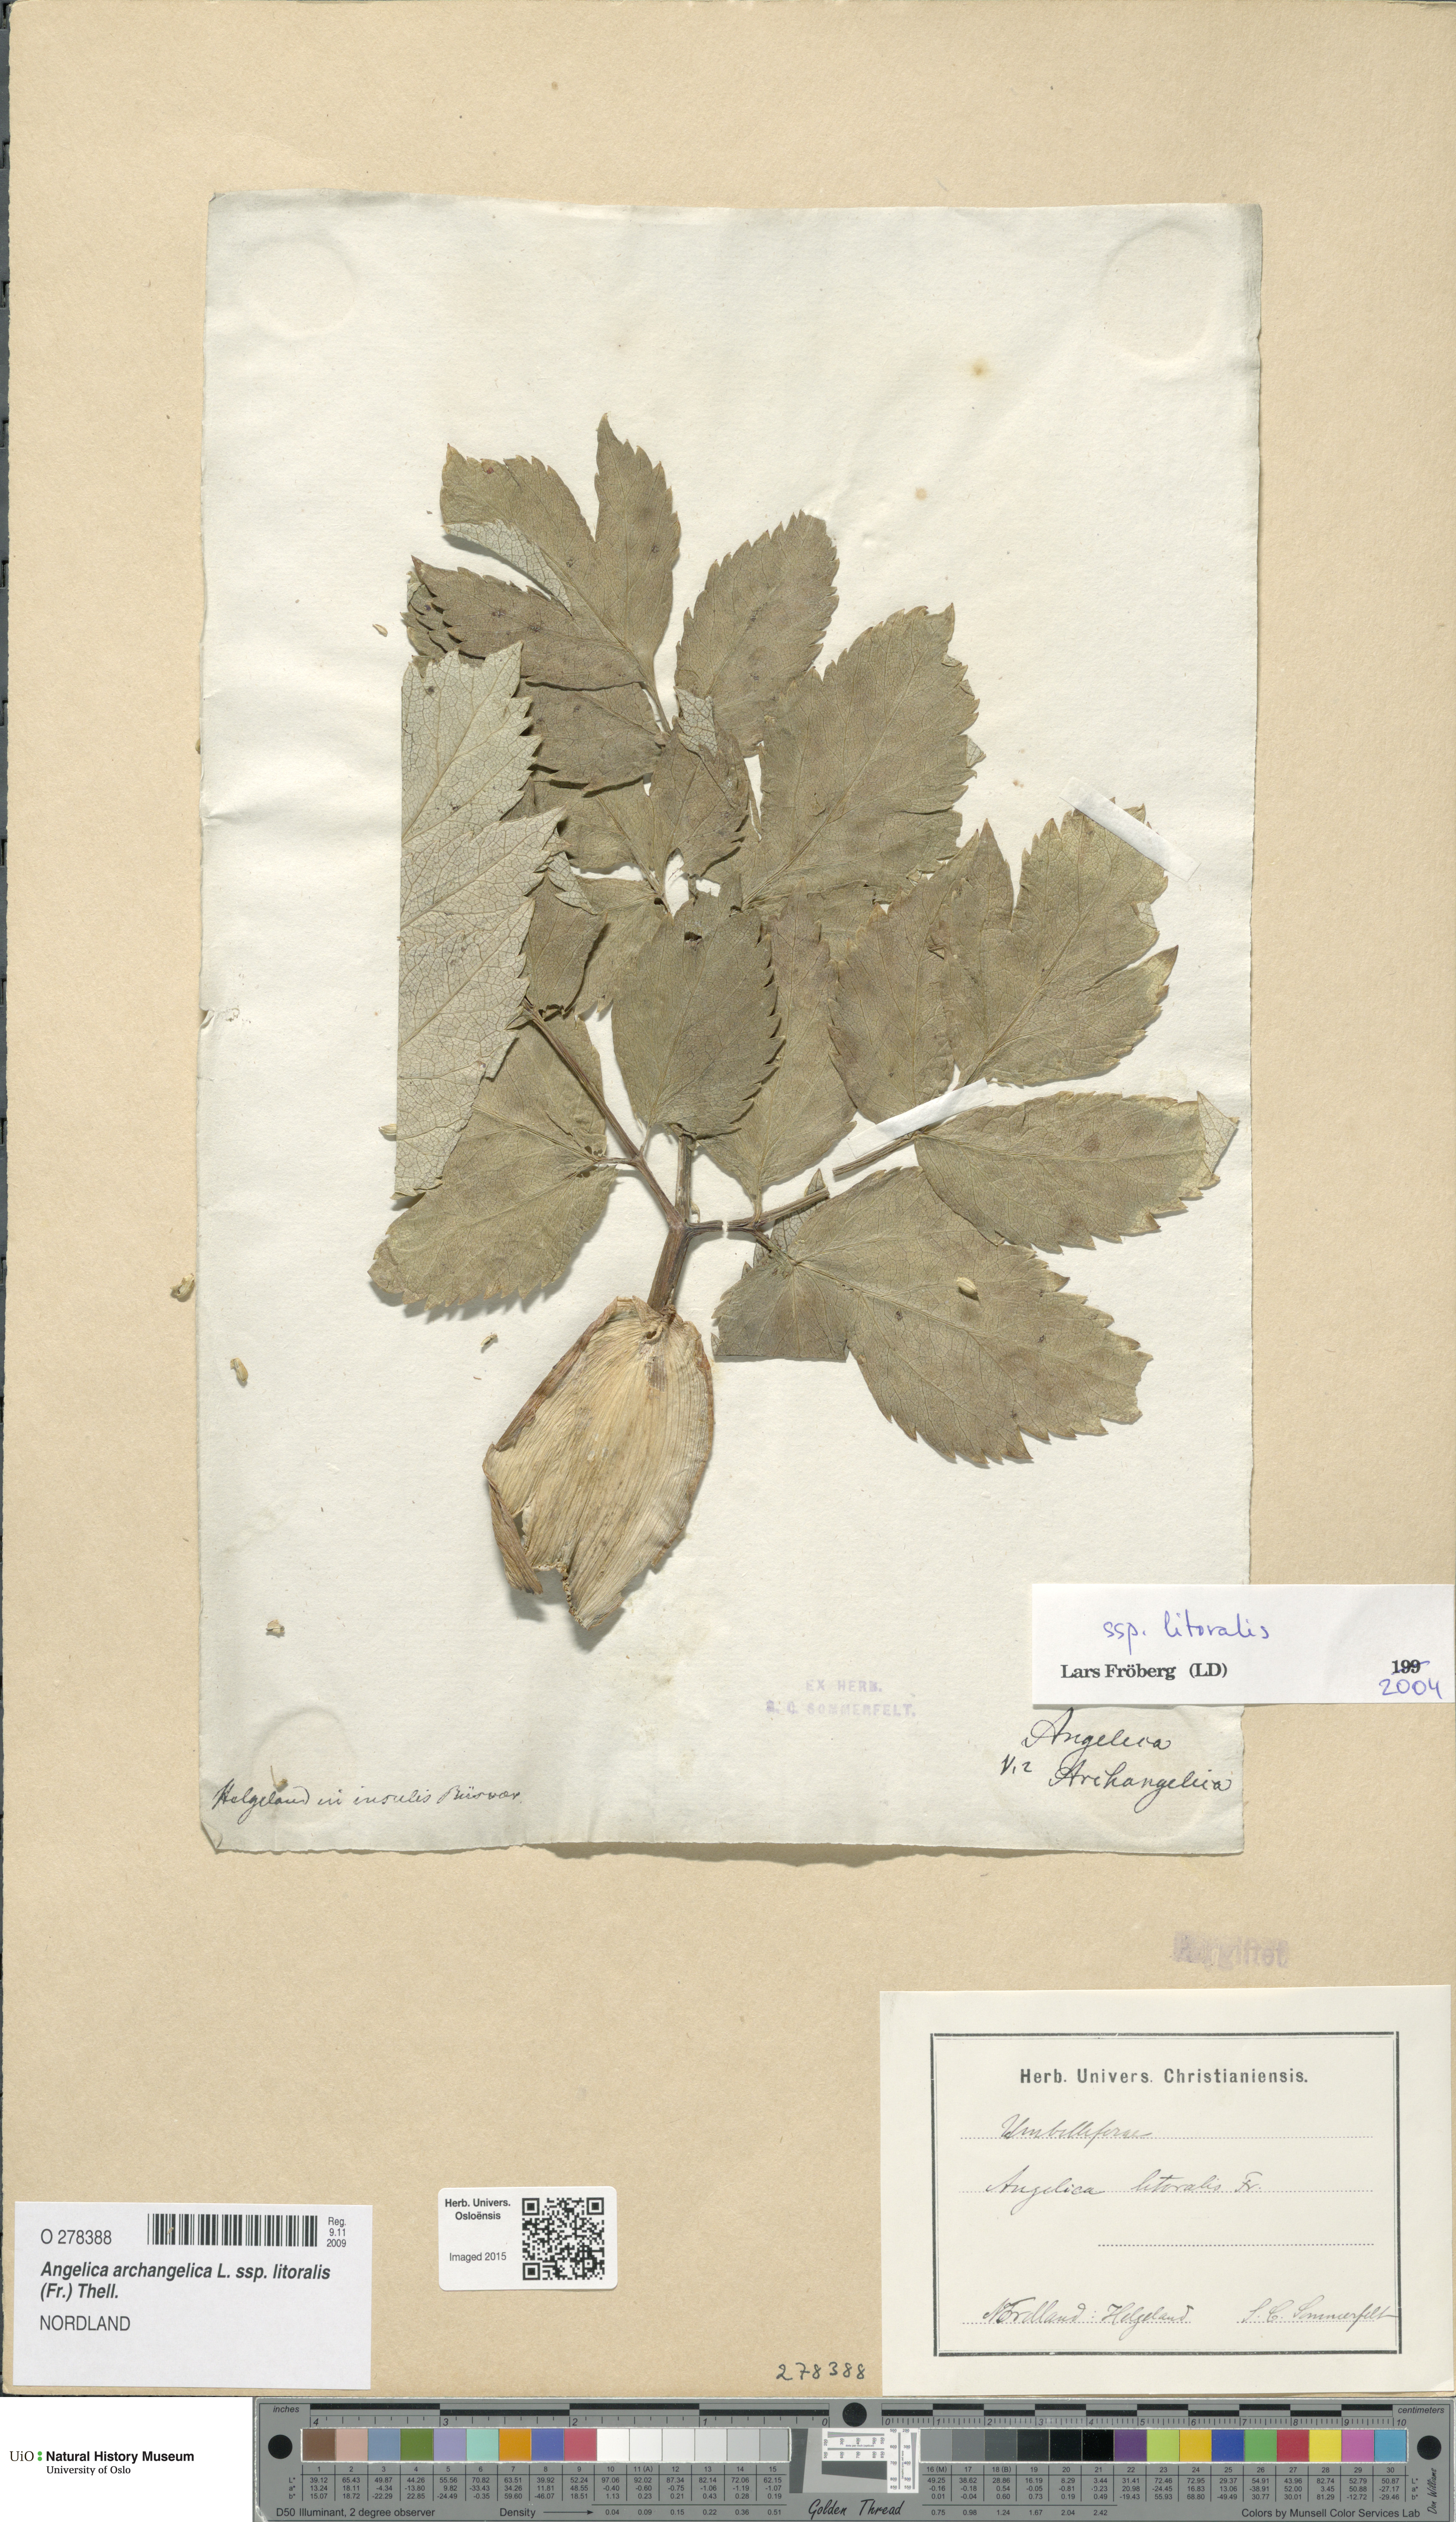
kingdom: Plantae
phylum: Tracheophyta
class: Magnoliopsida
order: Apiales
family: Apiaceae
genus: Angelica
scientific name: Angelica archangelica
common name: Garden angelica
